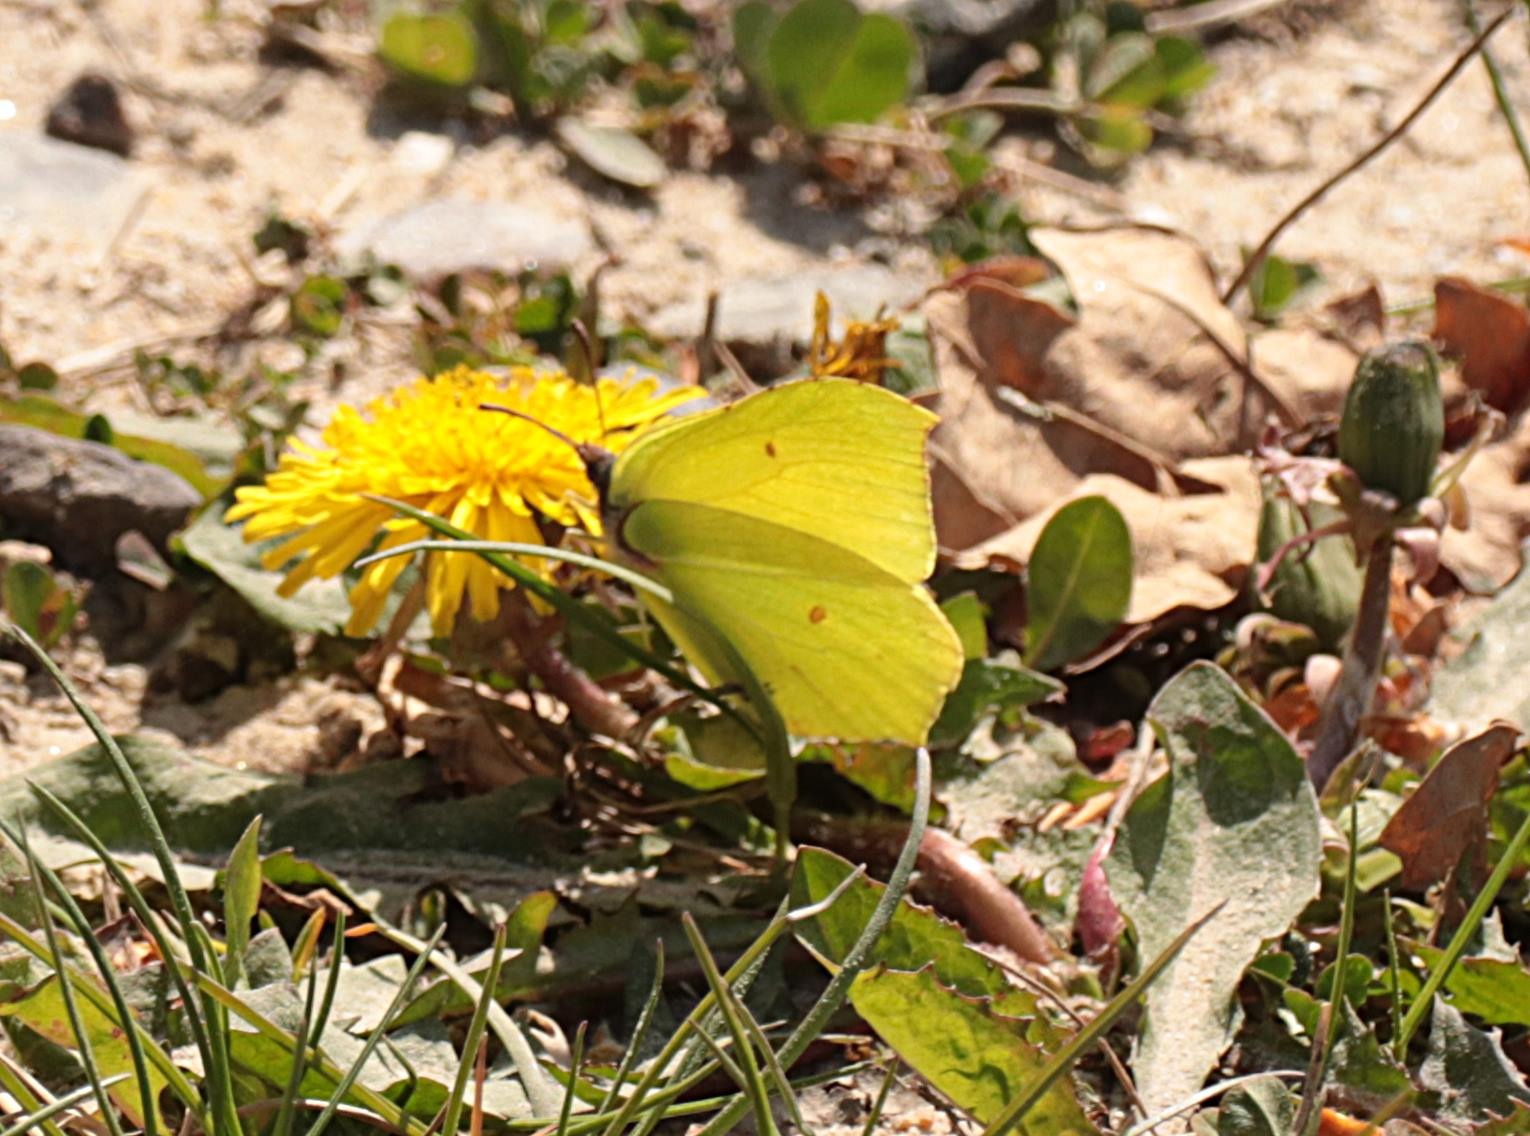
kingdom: Animalia
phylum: Arthropoda
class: Insecta
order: Lepidoptera
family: Pieridae
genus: Gonepteryx
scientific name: Gonepteryx rhamni
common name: Citronsommerfugl
